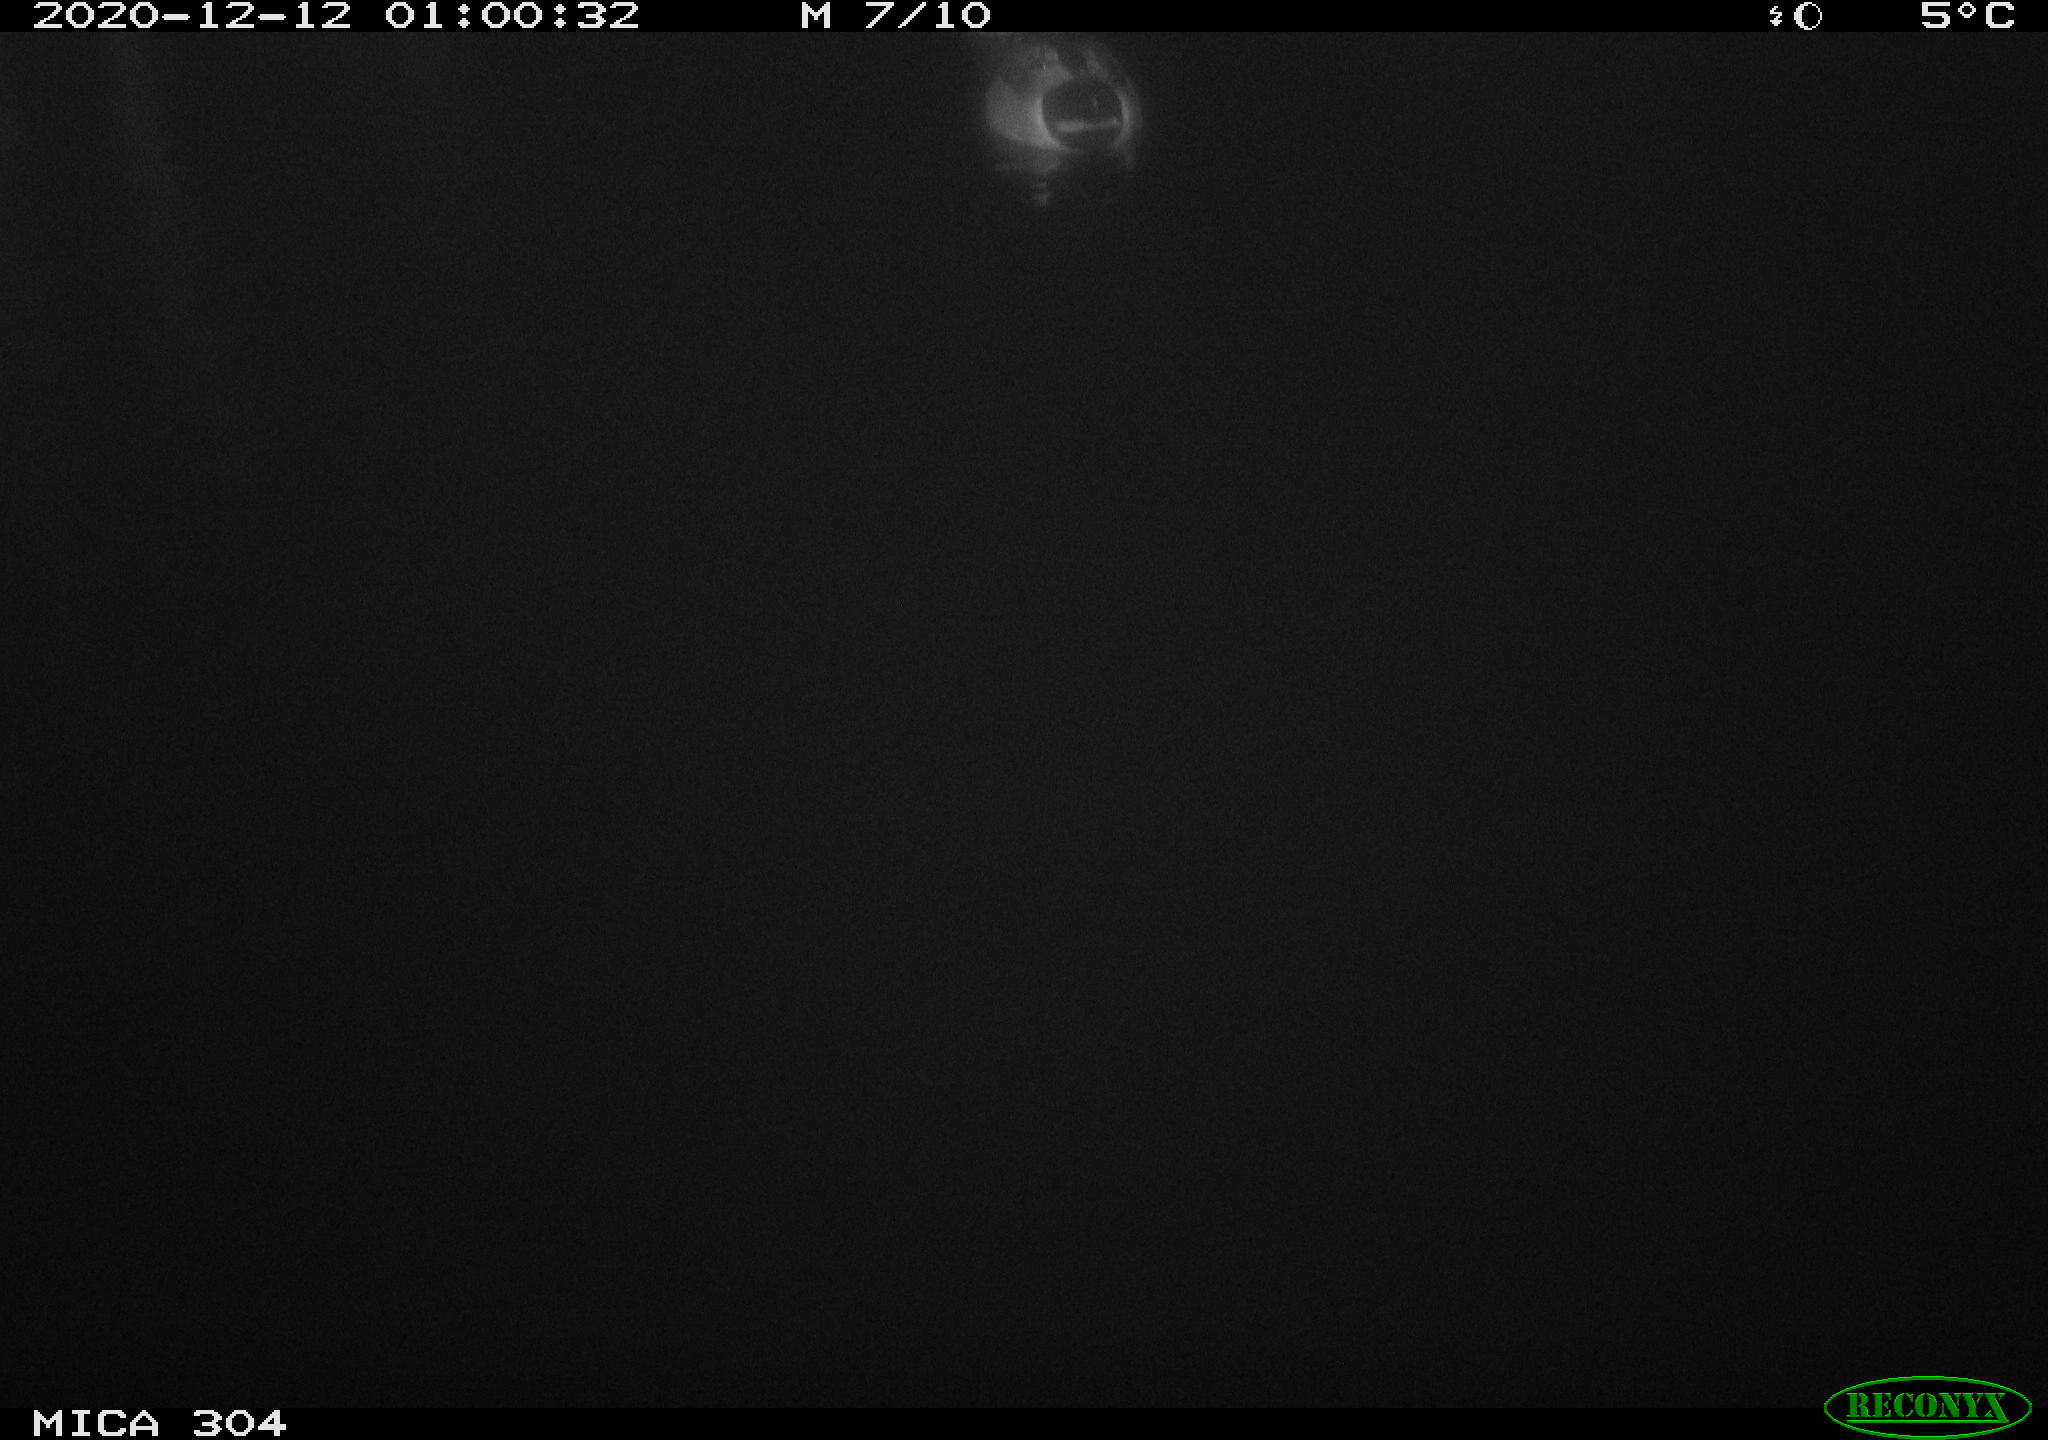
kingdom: Animalia
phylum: Chordata
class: Aves
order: Anseriformes
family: Anatidae
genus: Anas
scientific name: Anas platyrhynchos
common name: Mallard
